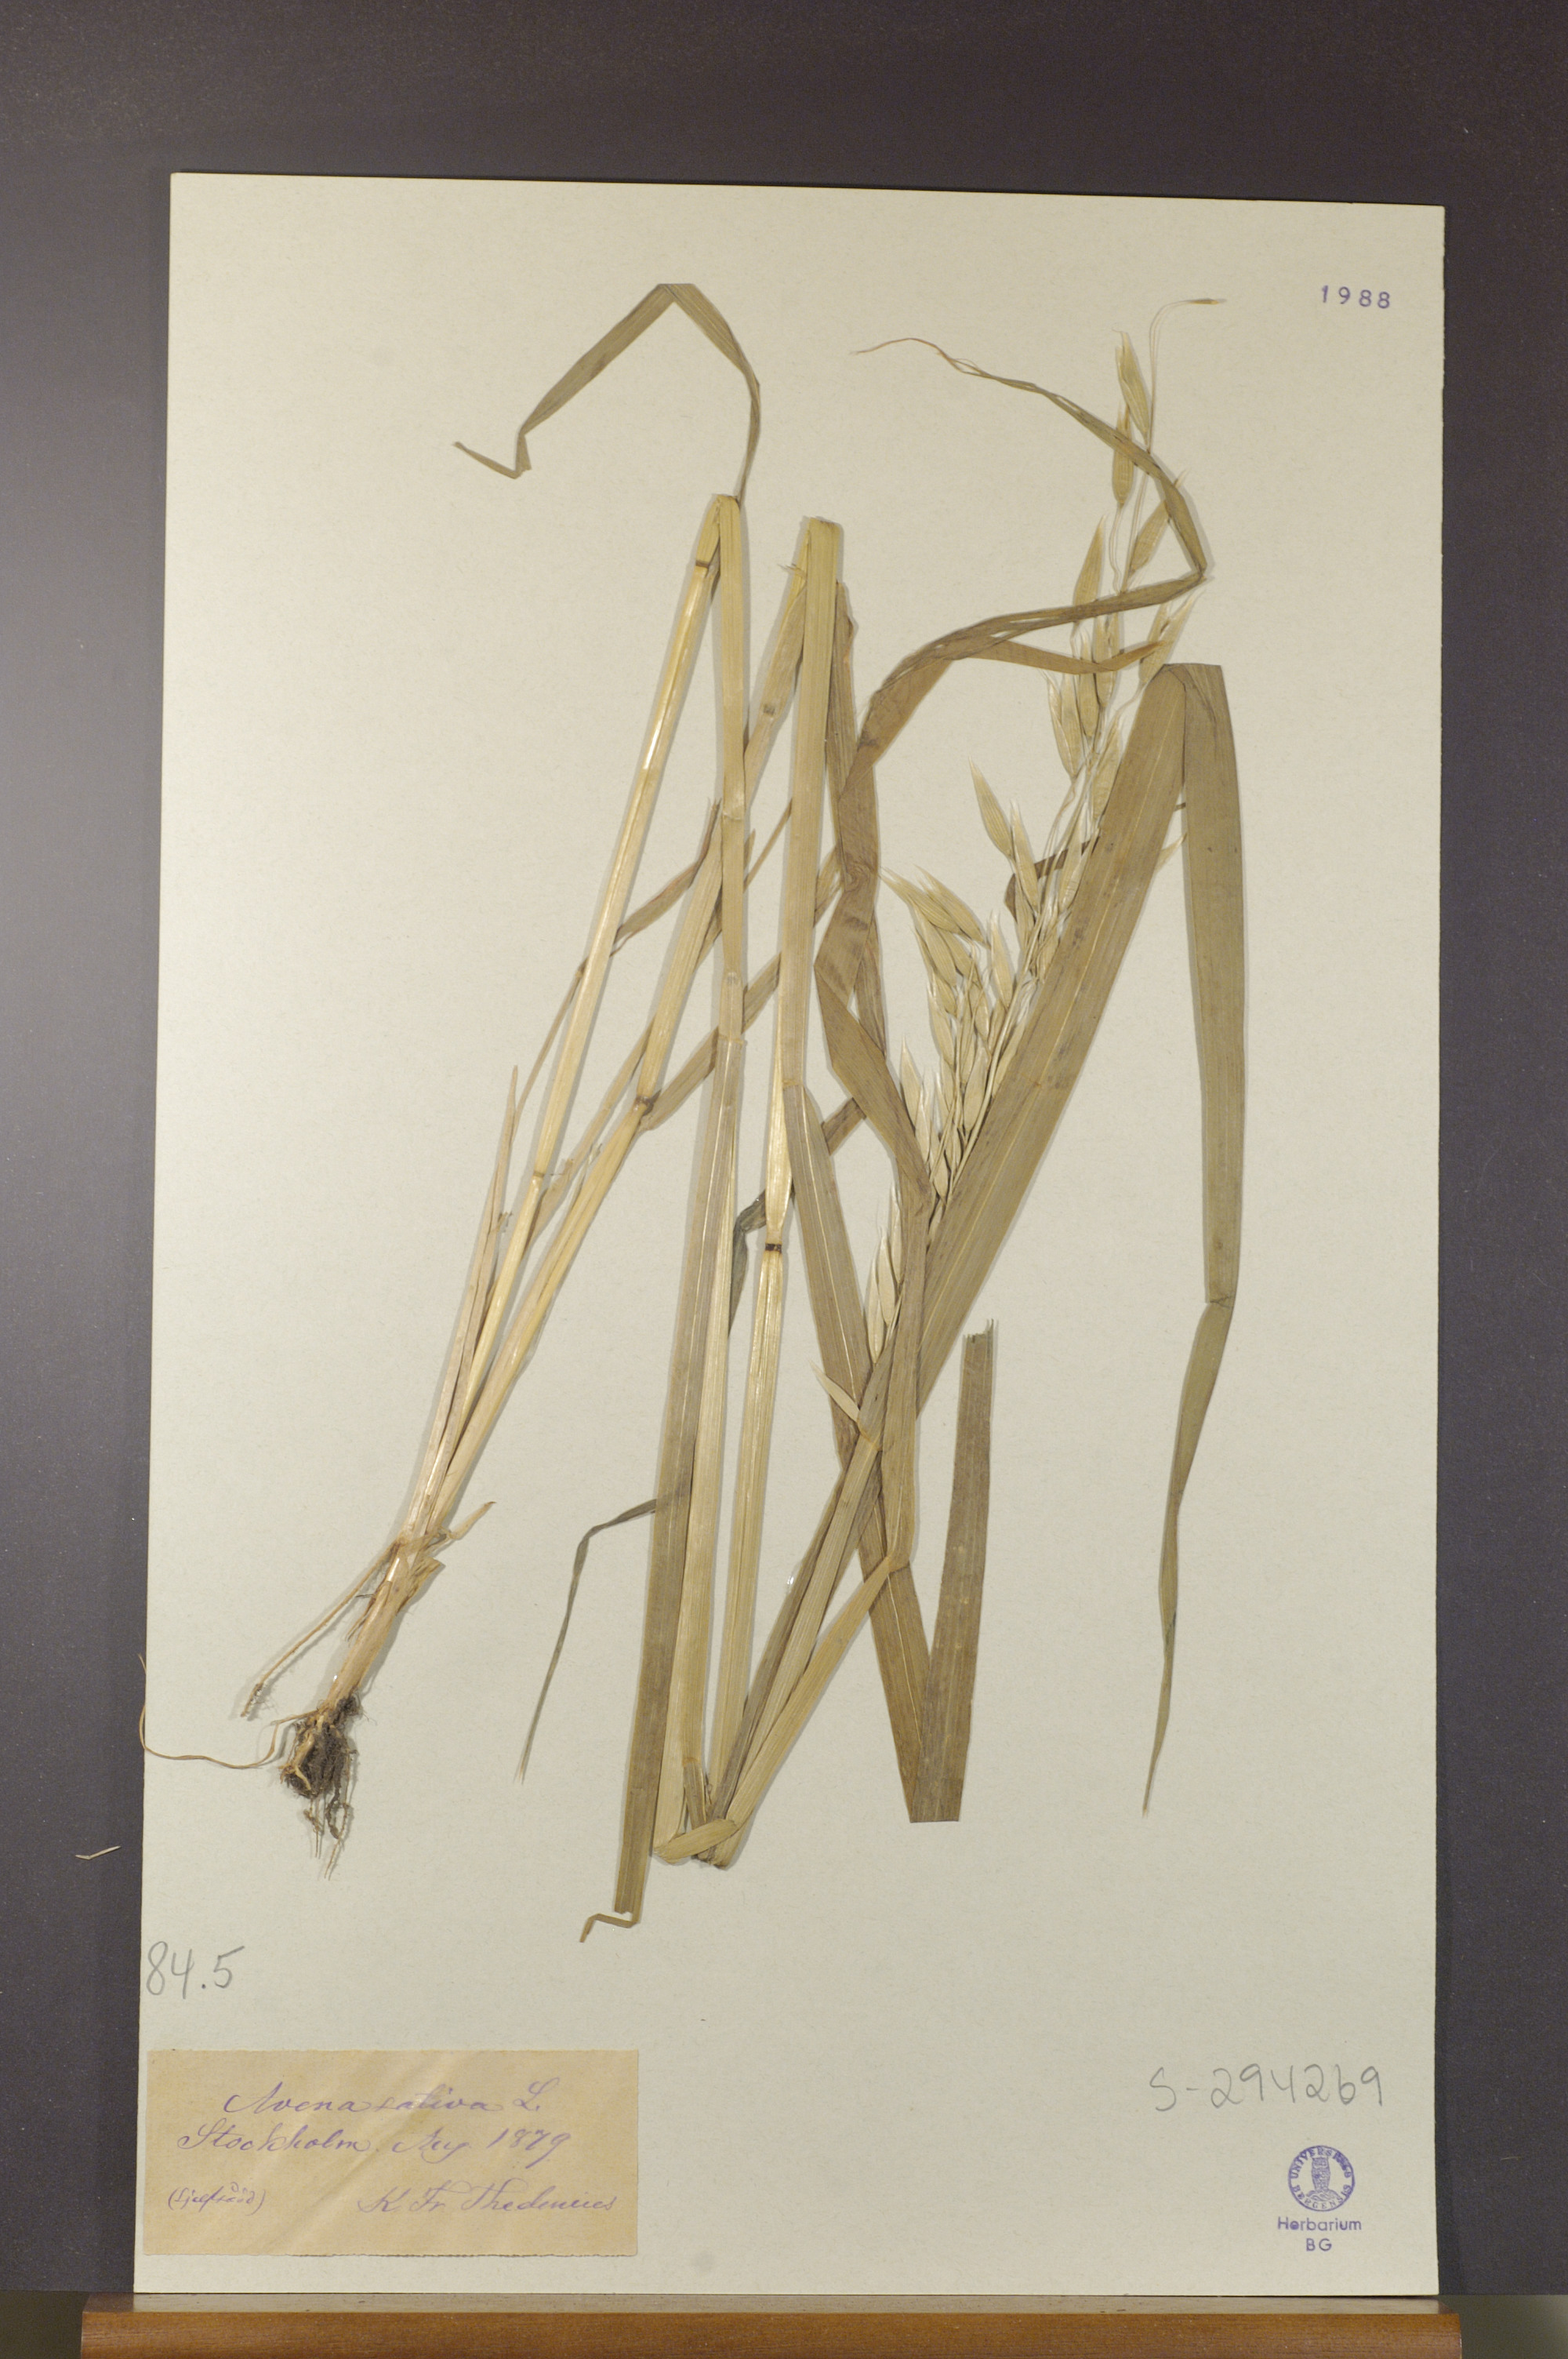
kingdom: Plantae
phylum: Tracheophyta
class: Liliopsida
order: Poales
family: Poaceae
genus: Avena
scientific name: Avena sativa
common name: Oat
